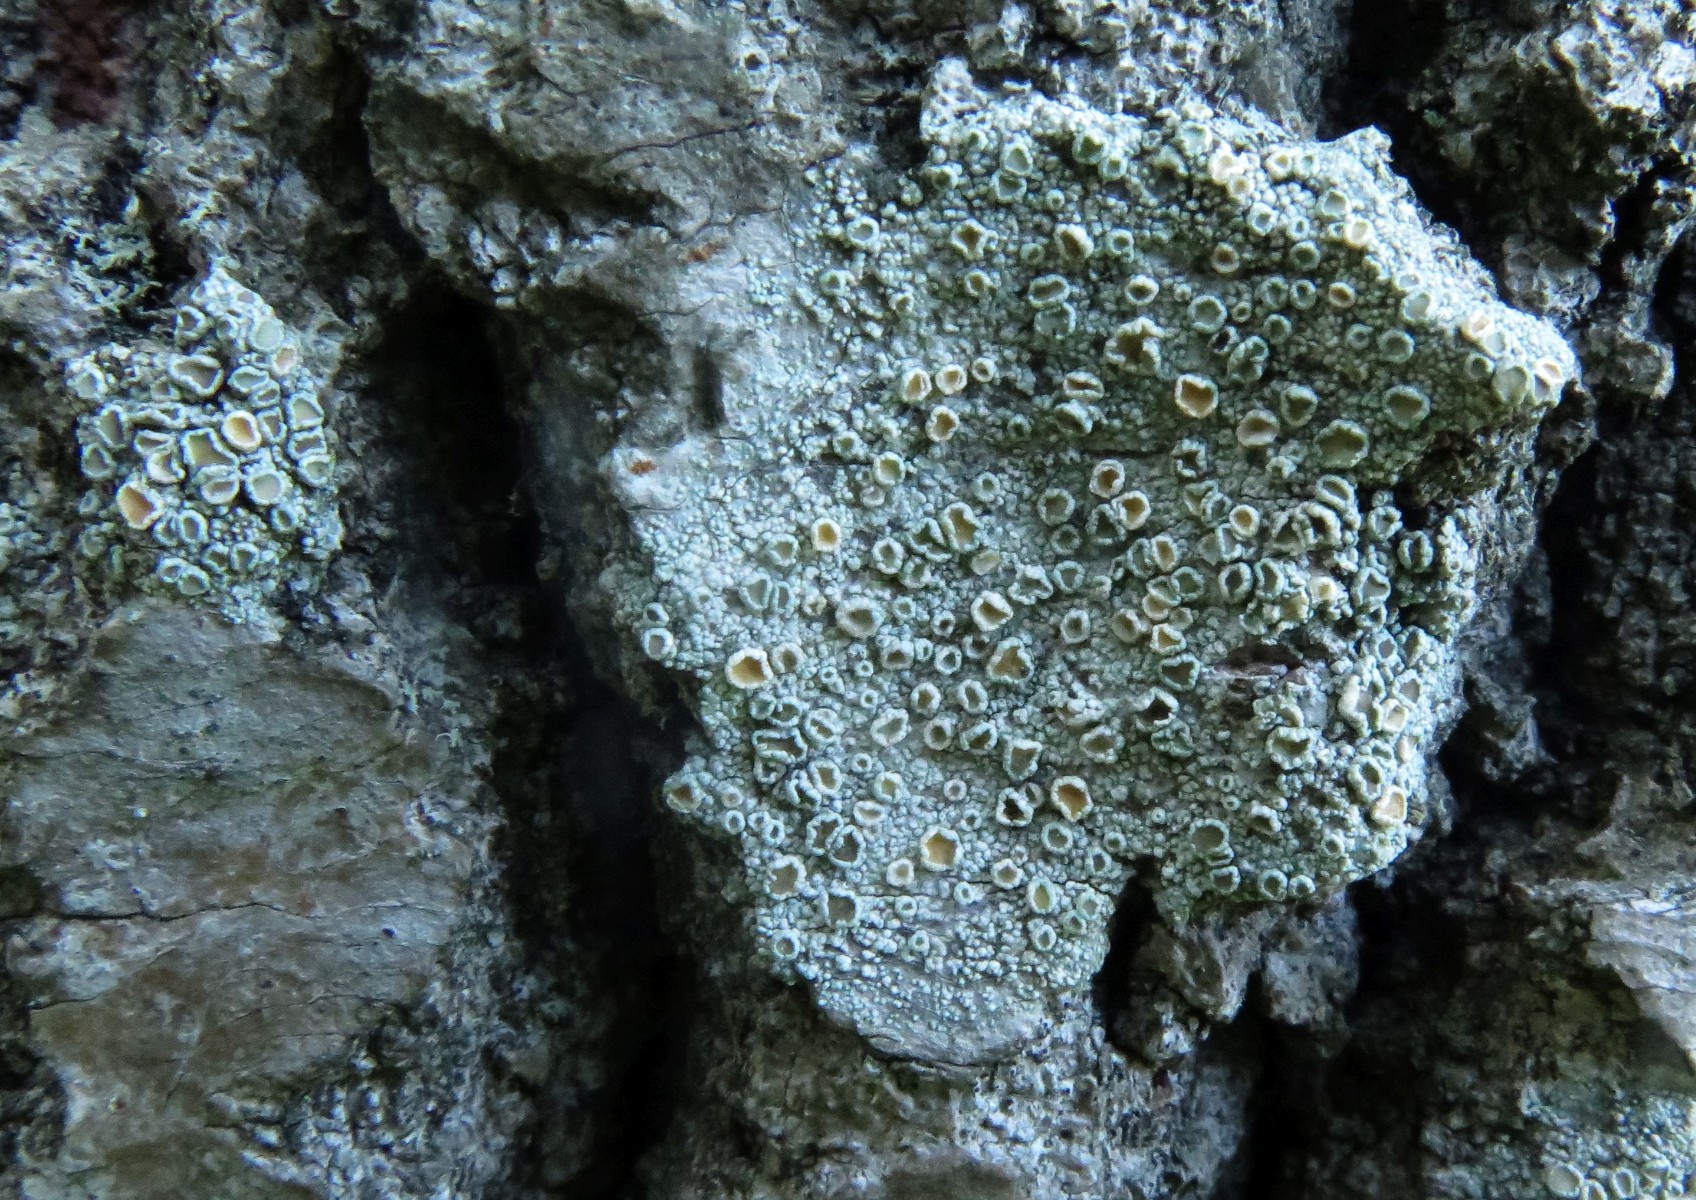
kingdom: Fungi
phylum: Ascomycota
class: Lecanoromycetes
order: Lecanorales
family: Lecanoraceae
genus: Lecanora
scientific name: Lecanora
